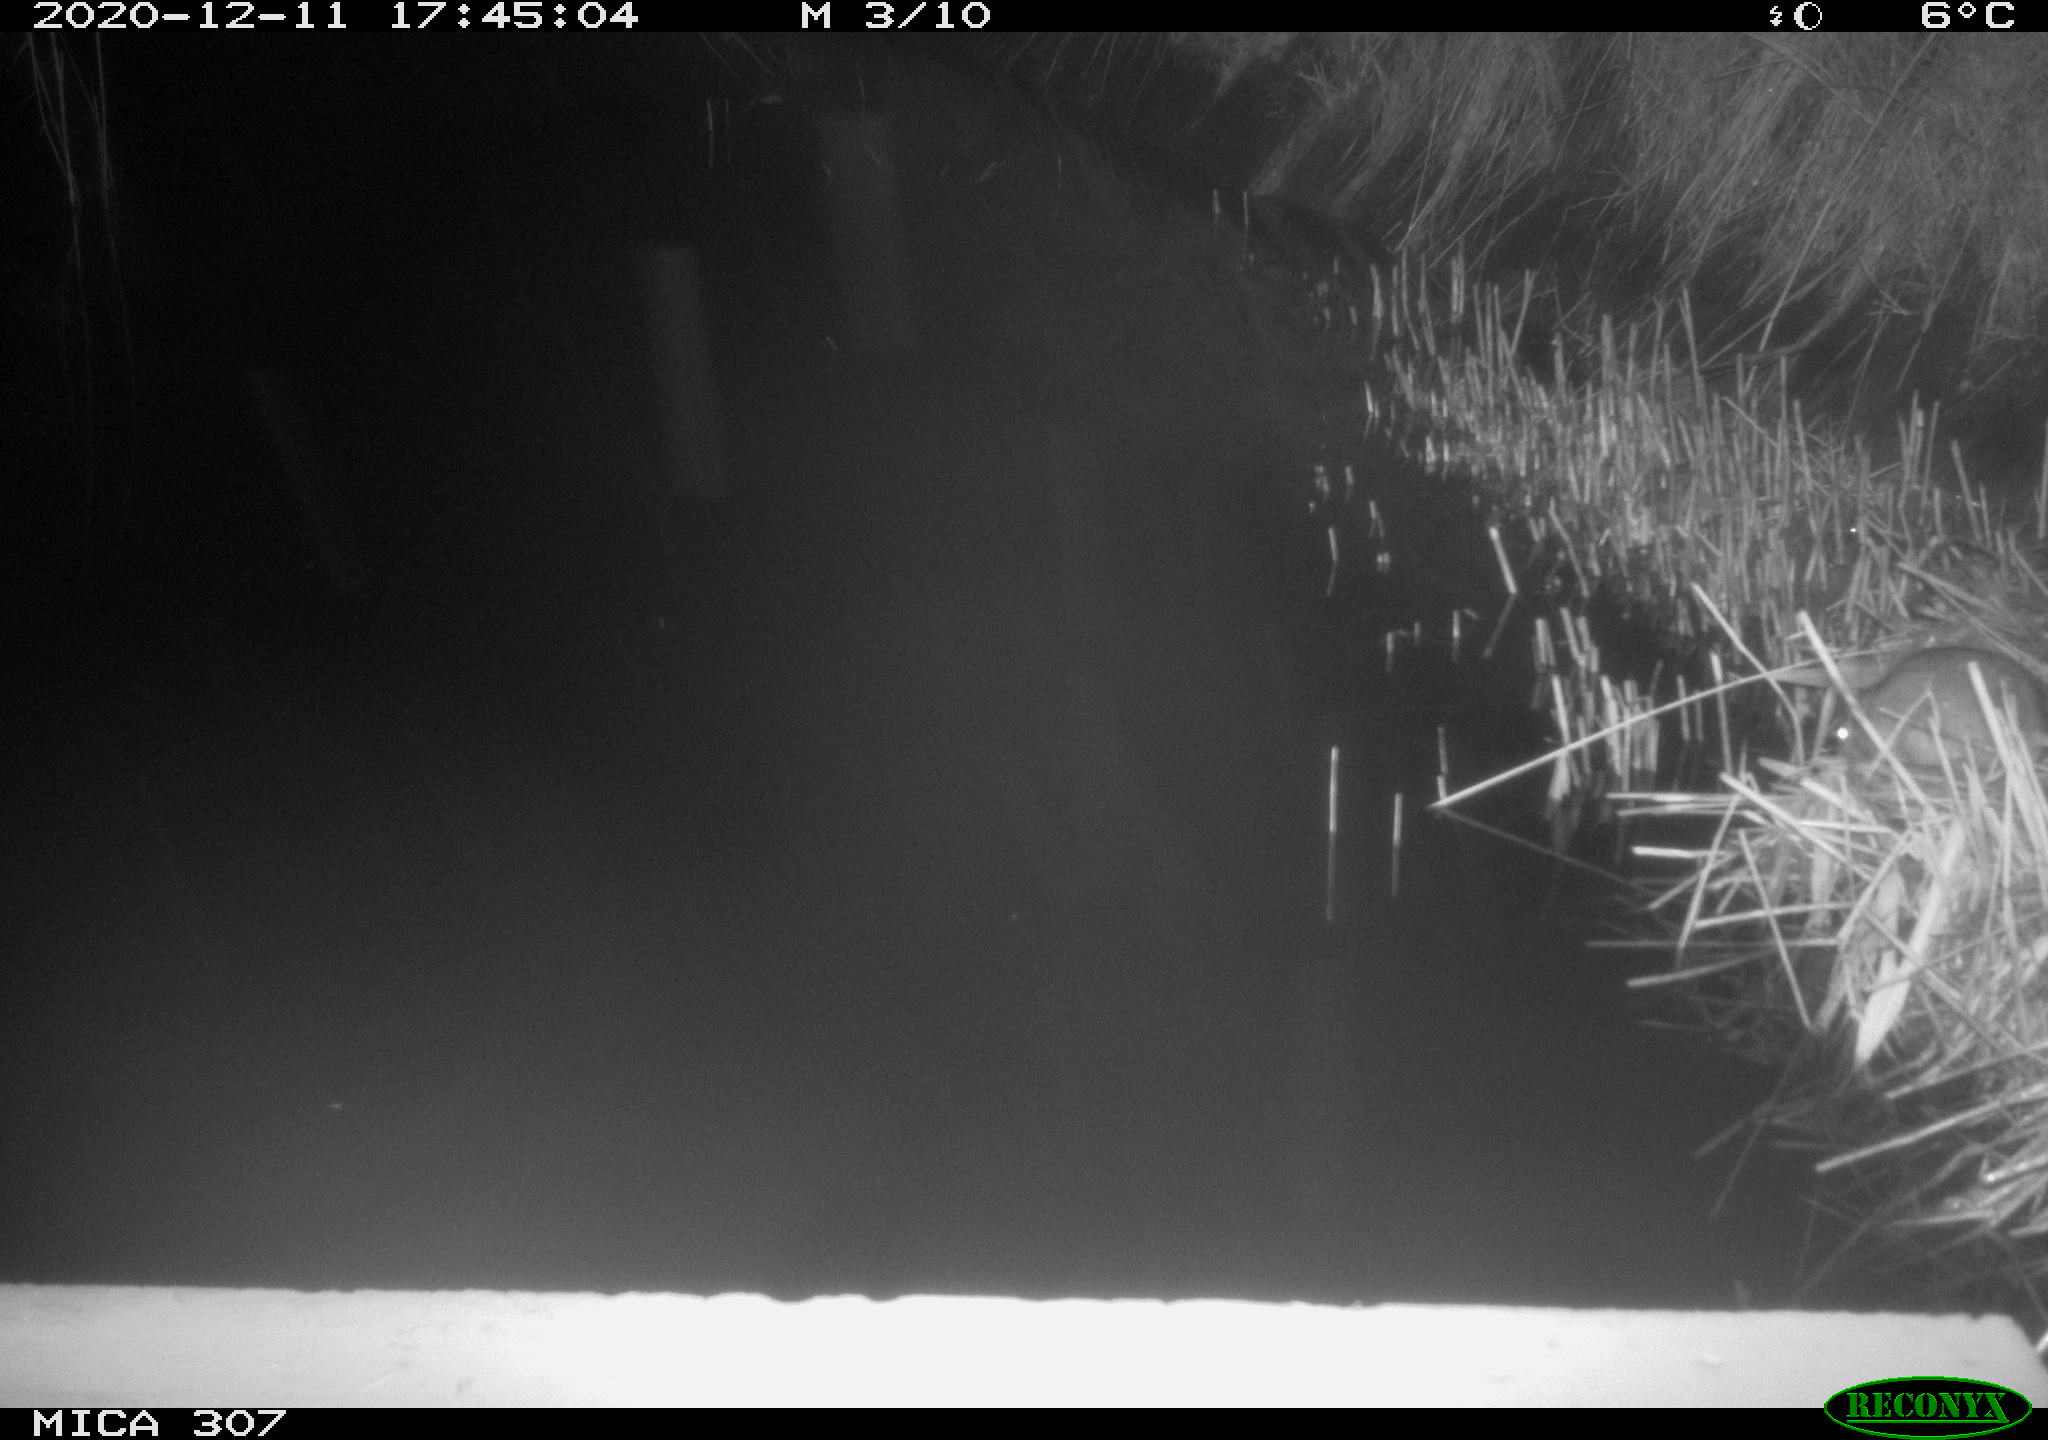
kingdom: Animalia
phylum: Chordata
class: Mammalia
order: Rodentia
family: Muridae
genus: Rattus
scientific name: Rattus norvegicus
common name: Brown rat
